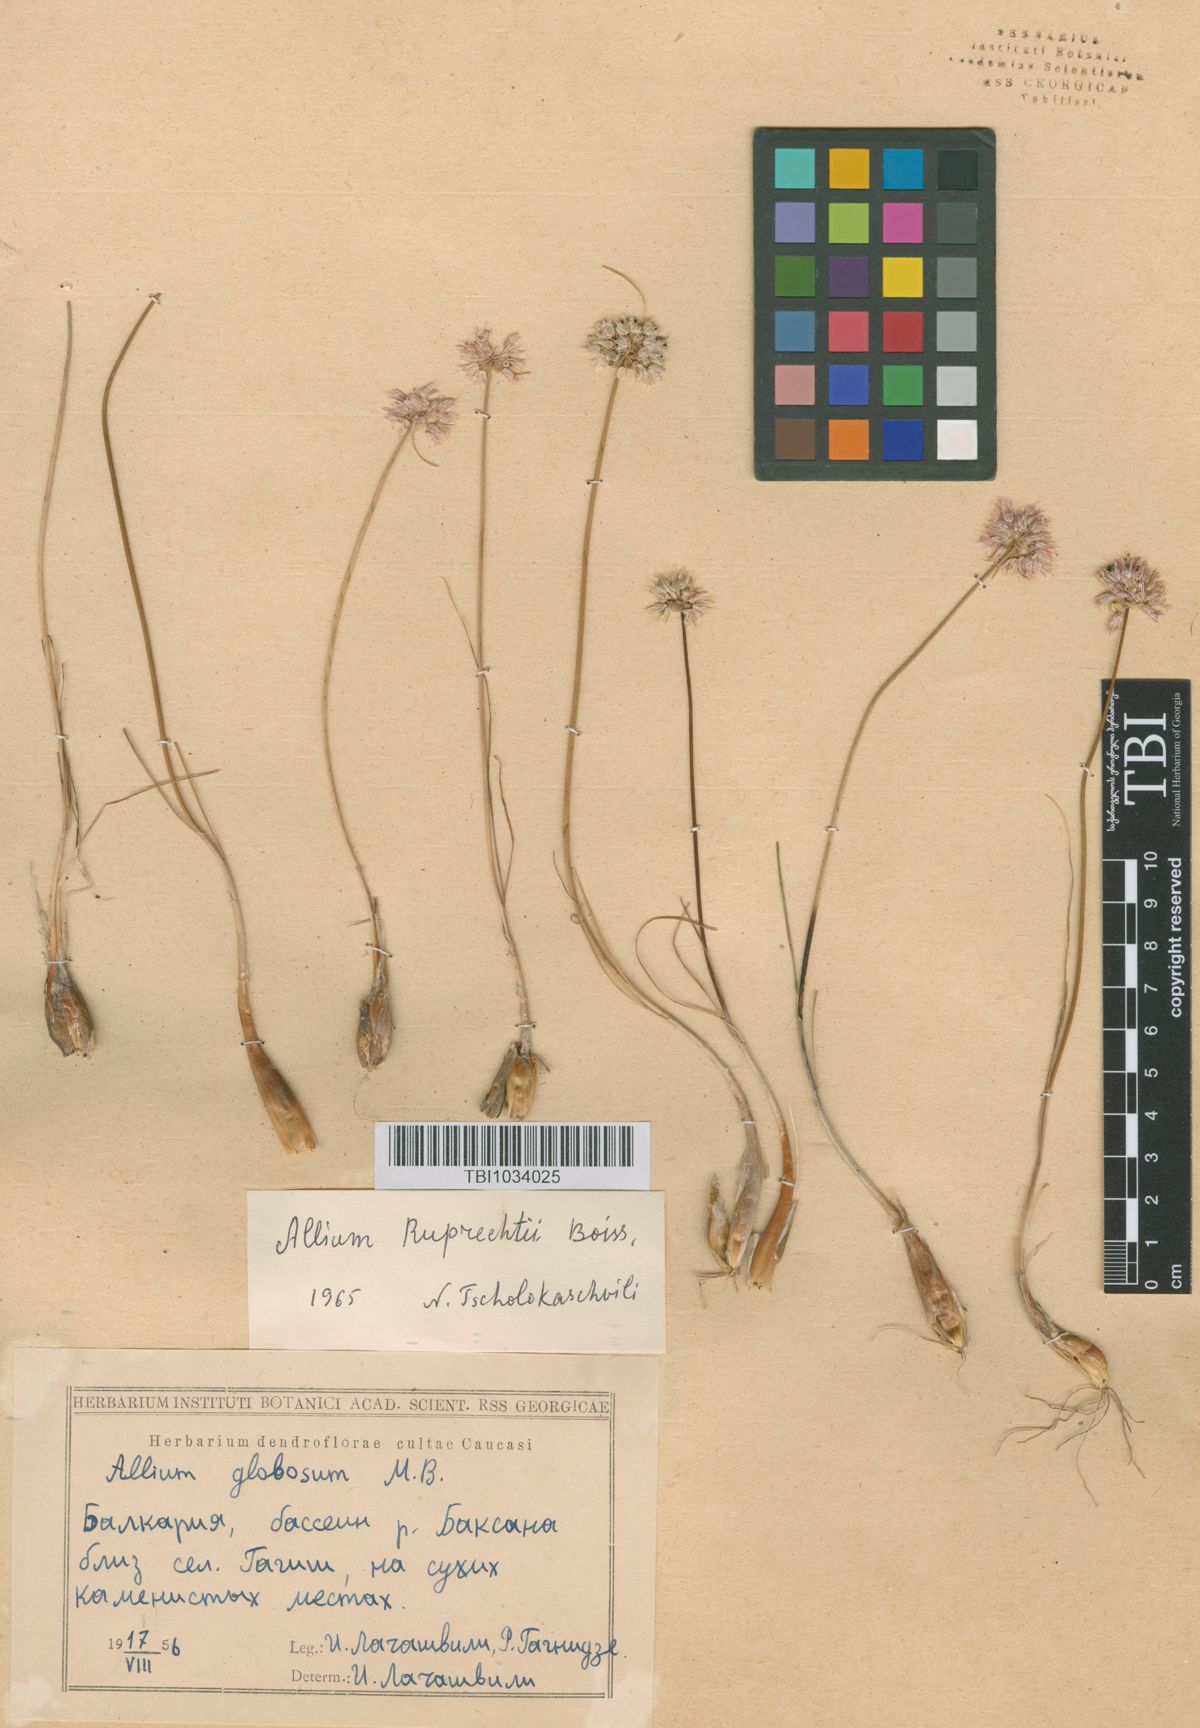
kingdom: Plantae
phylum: Tracheophyta
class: Liliopsida
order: Asparagales
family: Amaryllidaceae
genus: Allium
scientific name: Allium saxatile
